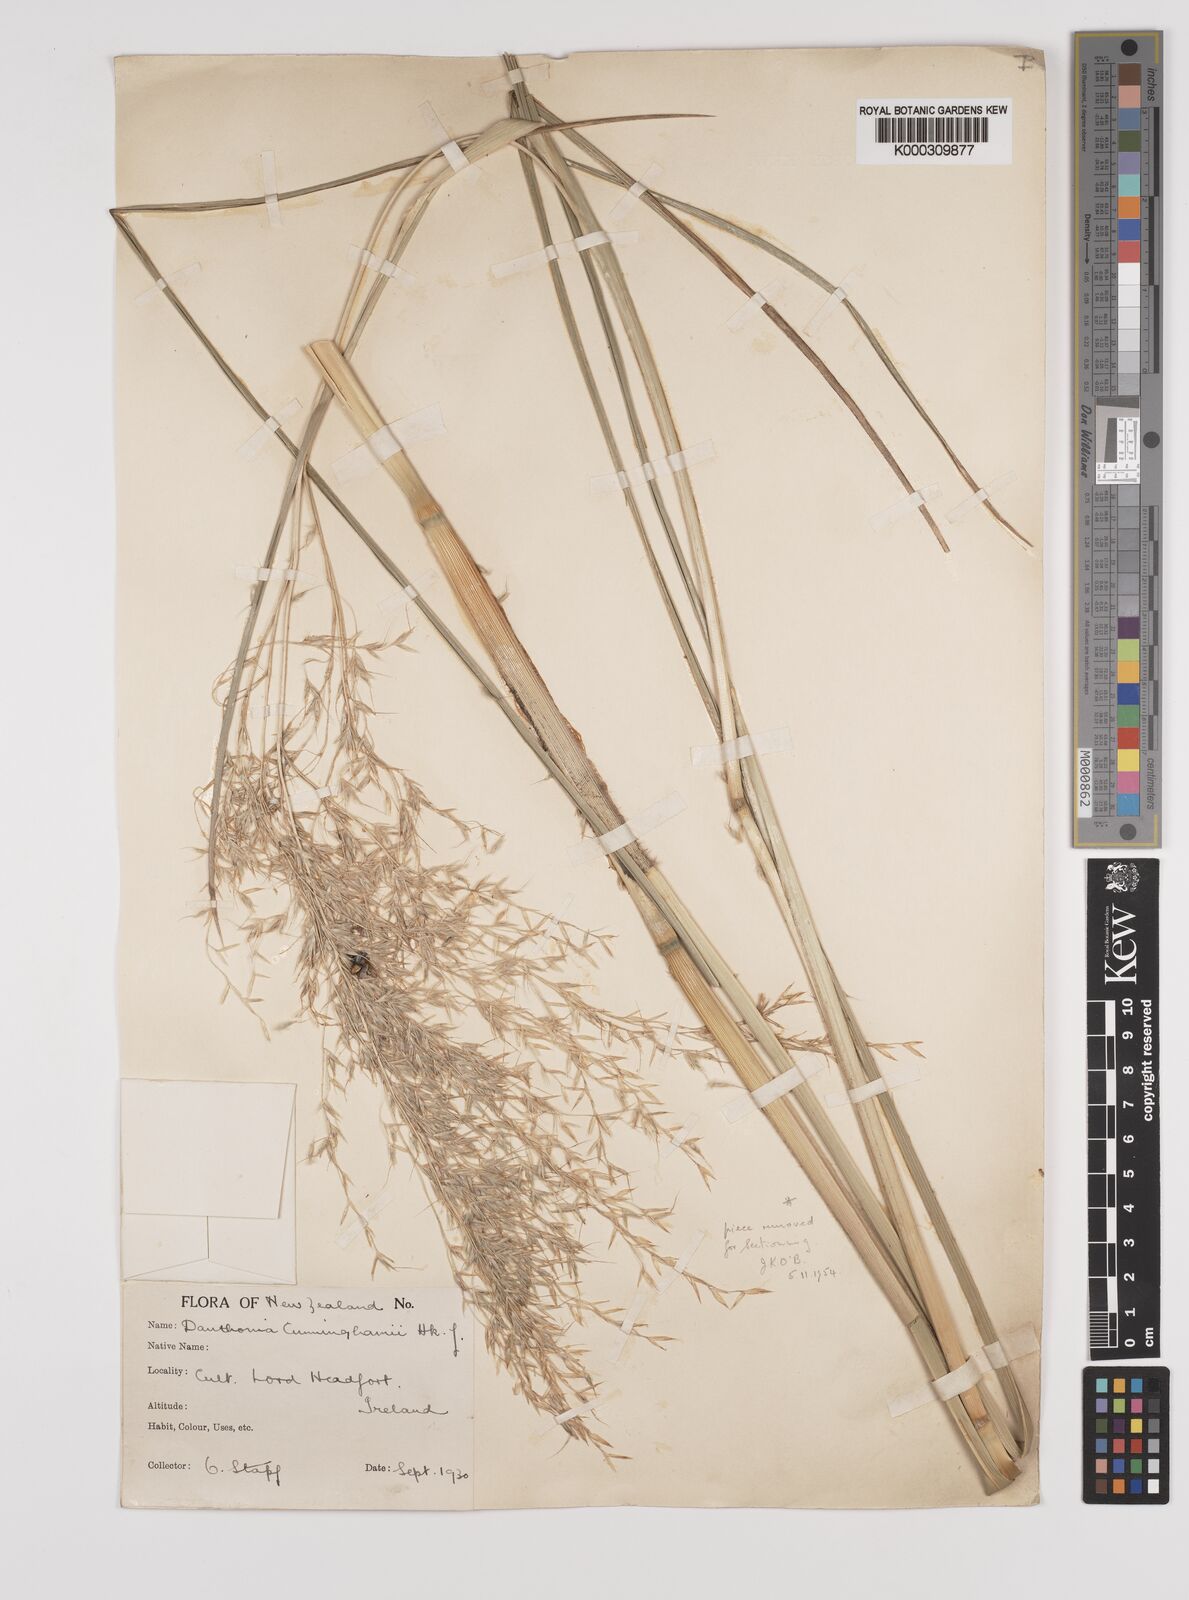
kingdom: Plantae
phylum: Tracheophyta
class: Liliopsida
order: Poales
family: Poaceae
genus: Chionochloa
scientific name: Chionochloa conspicua
